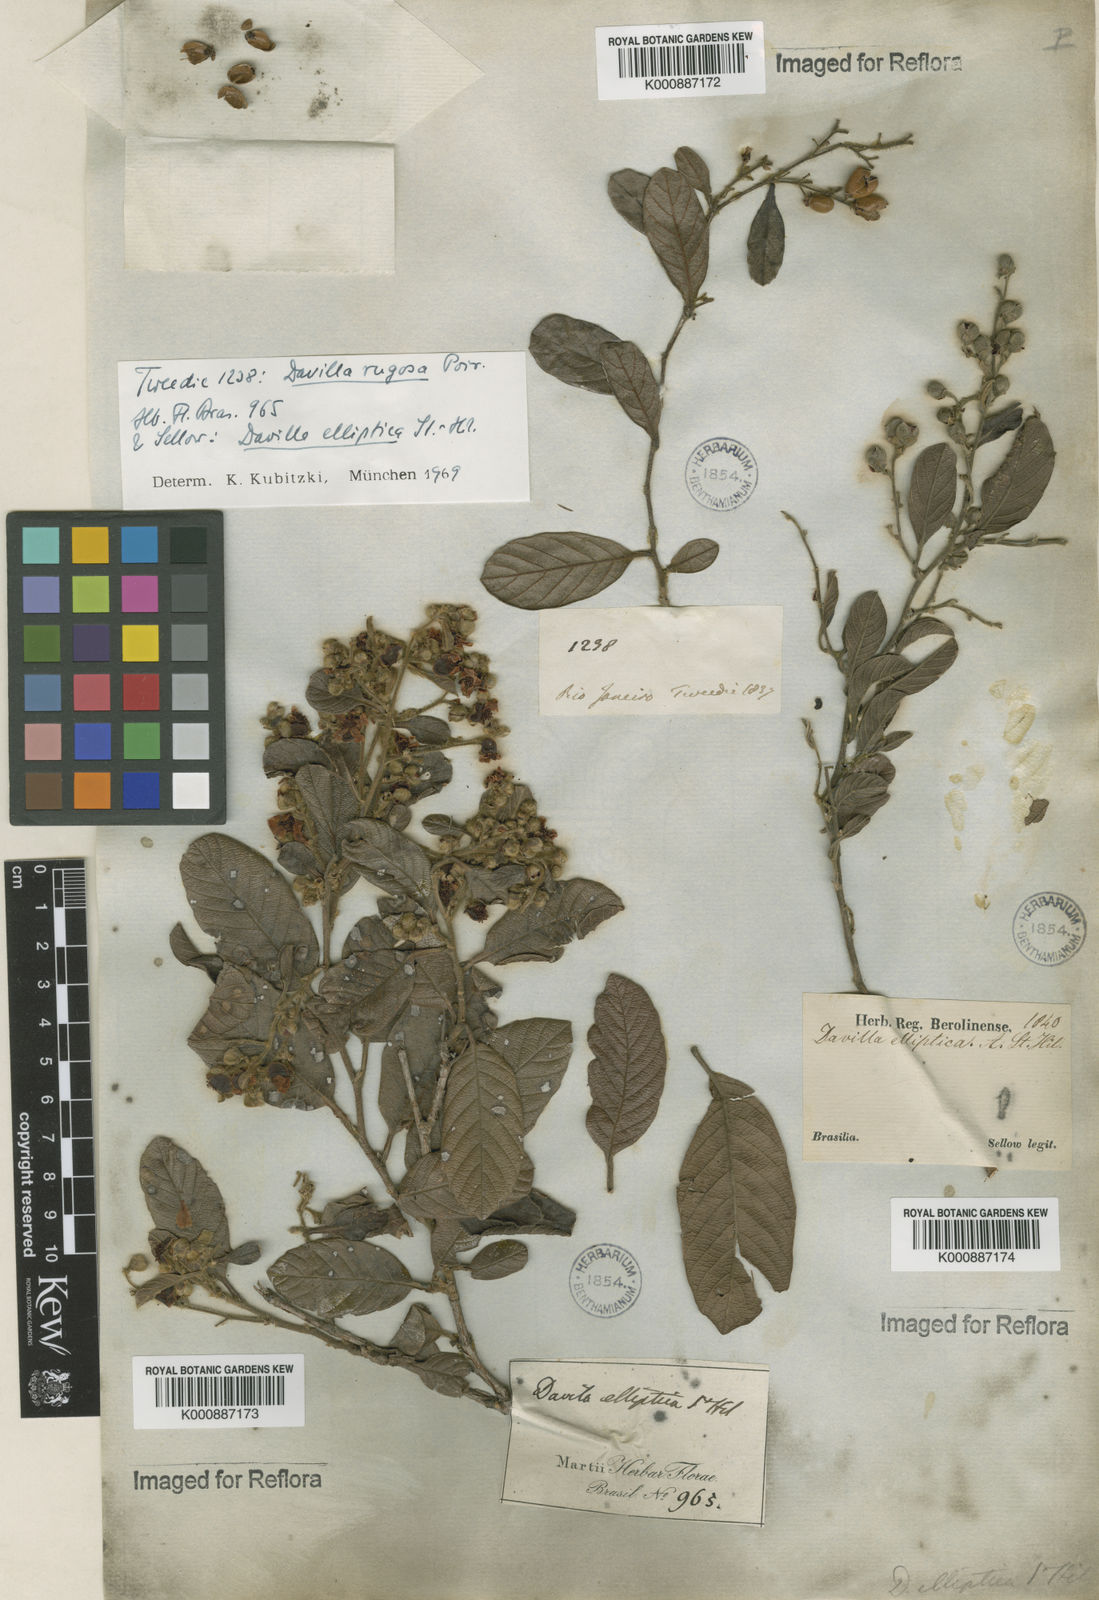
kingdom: Plantae
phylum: Tracheophyta
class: Magnoliopsida
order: Dilleniales
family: Dilleniaceae
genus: Davilla
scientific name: Davilla elliptica
